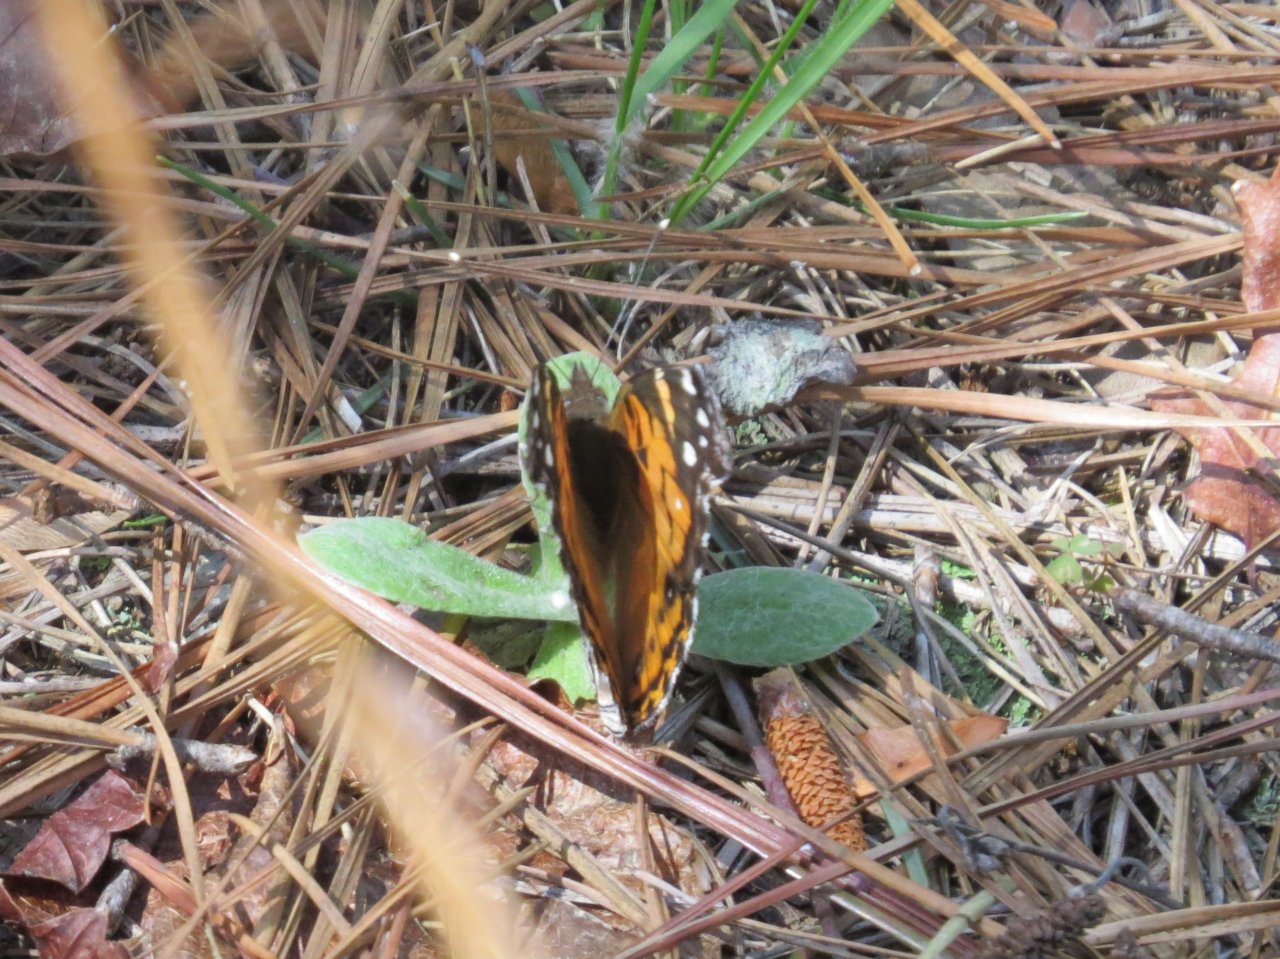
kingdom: Animalia
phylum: Arthropoda
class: Insecta
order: Lepidoptera
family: Nymphalidae
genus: Vanessa
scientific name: Vanessa virginiensis
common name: American Lady
